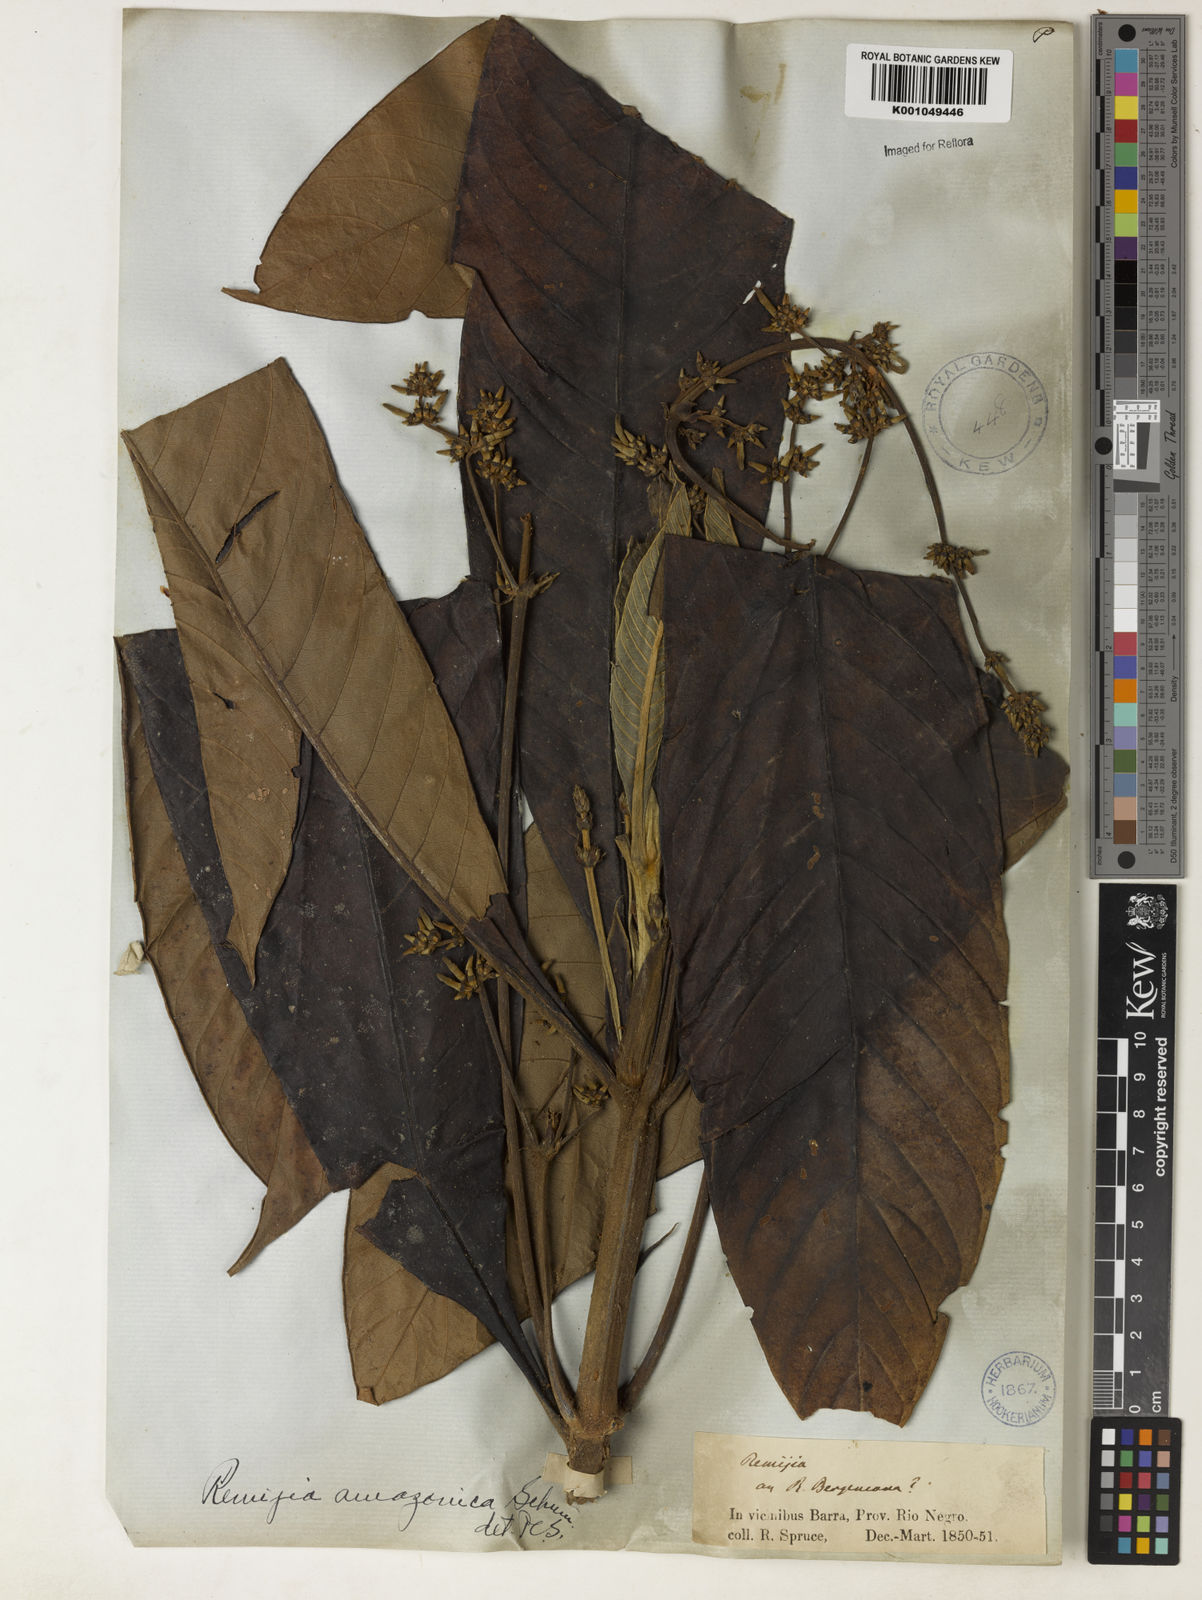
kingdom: Plantae
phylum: Tracheophyta
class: Magnoliopsida
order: Gentianales
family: Rubiaceae
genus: Remijia
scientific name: Remijia amazonica
